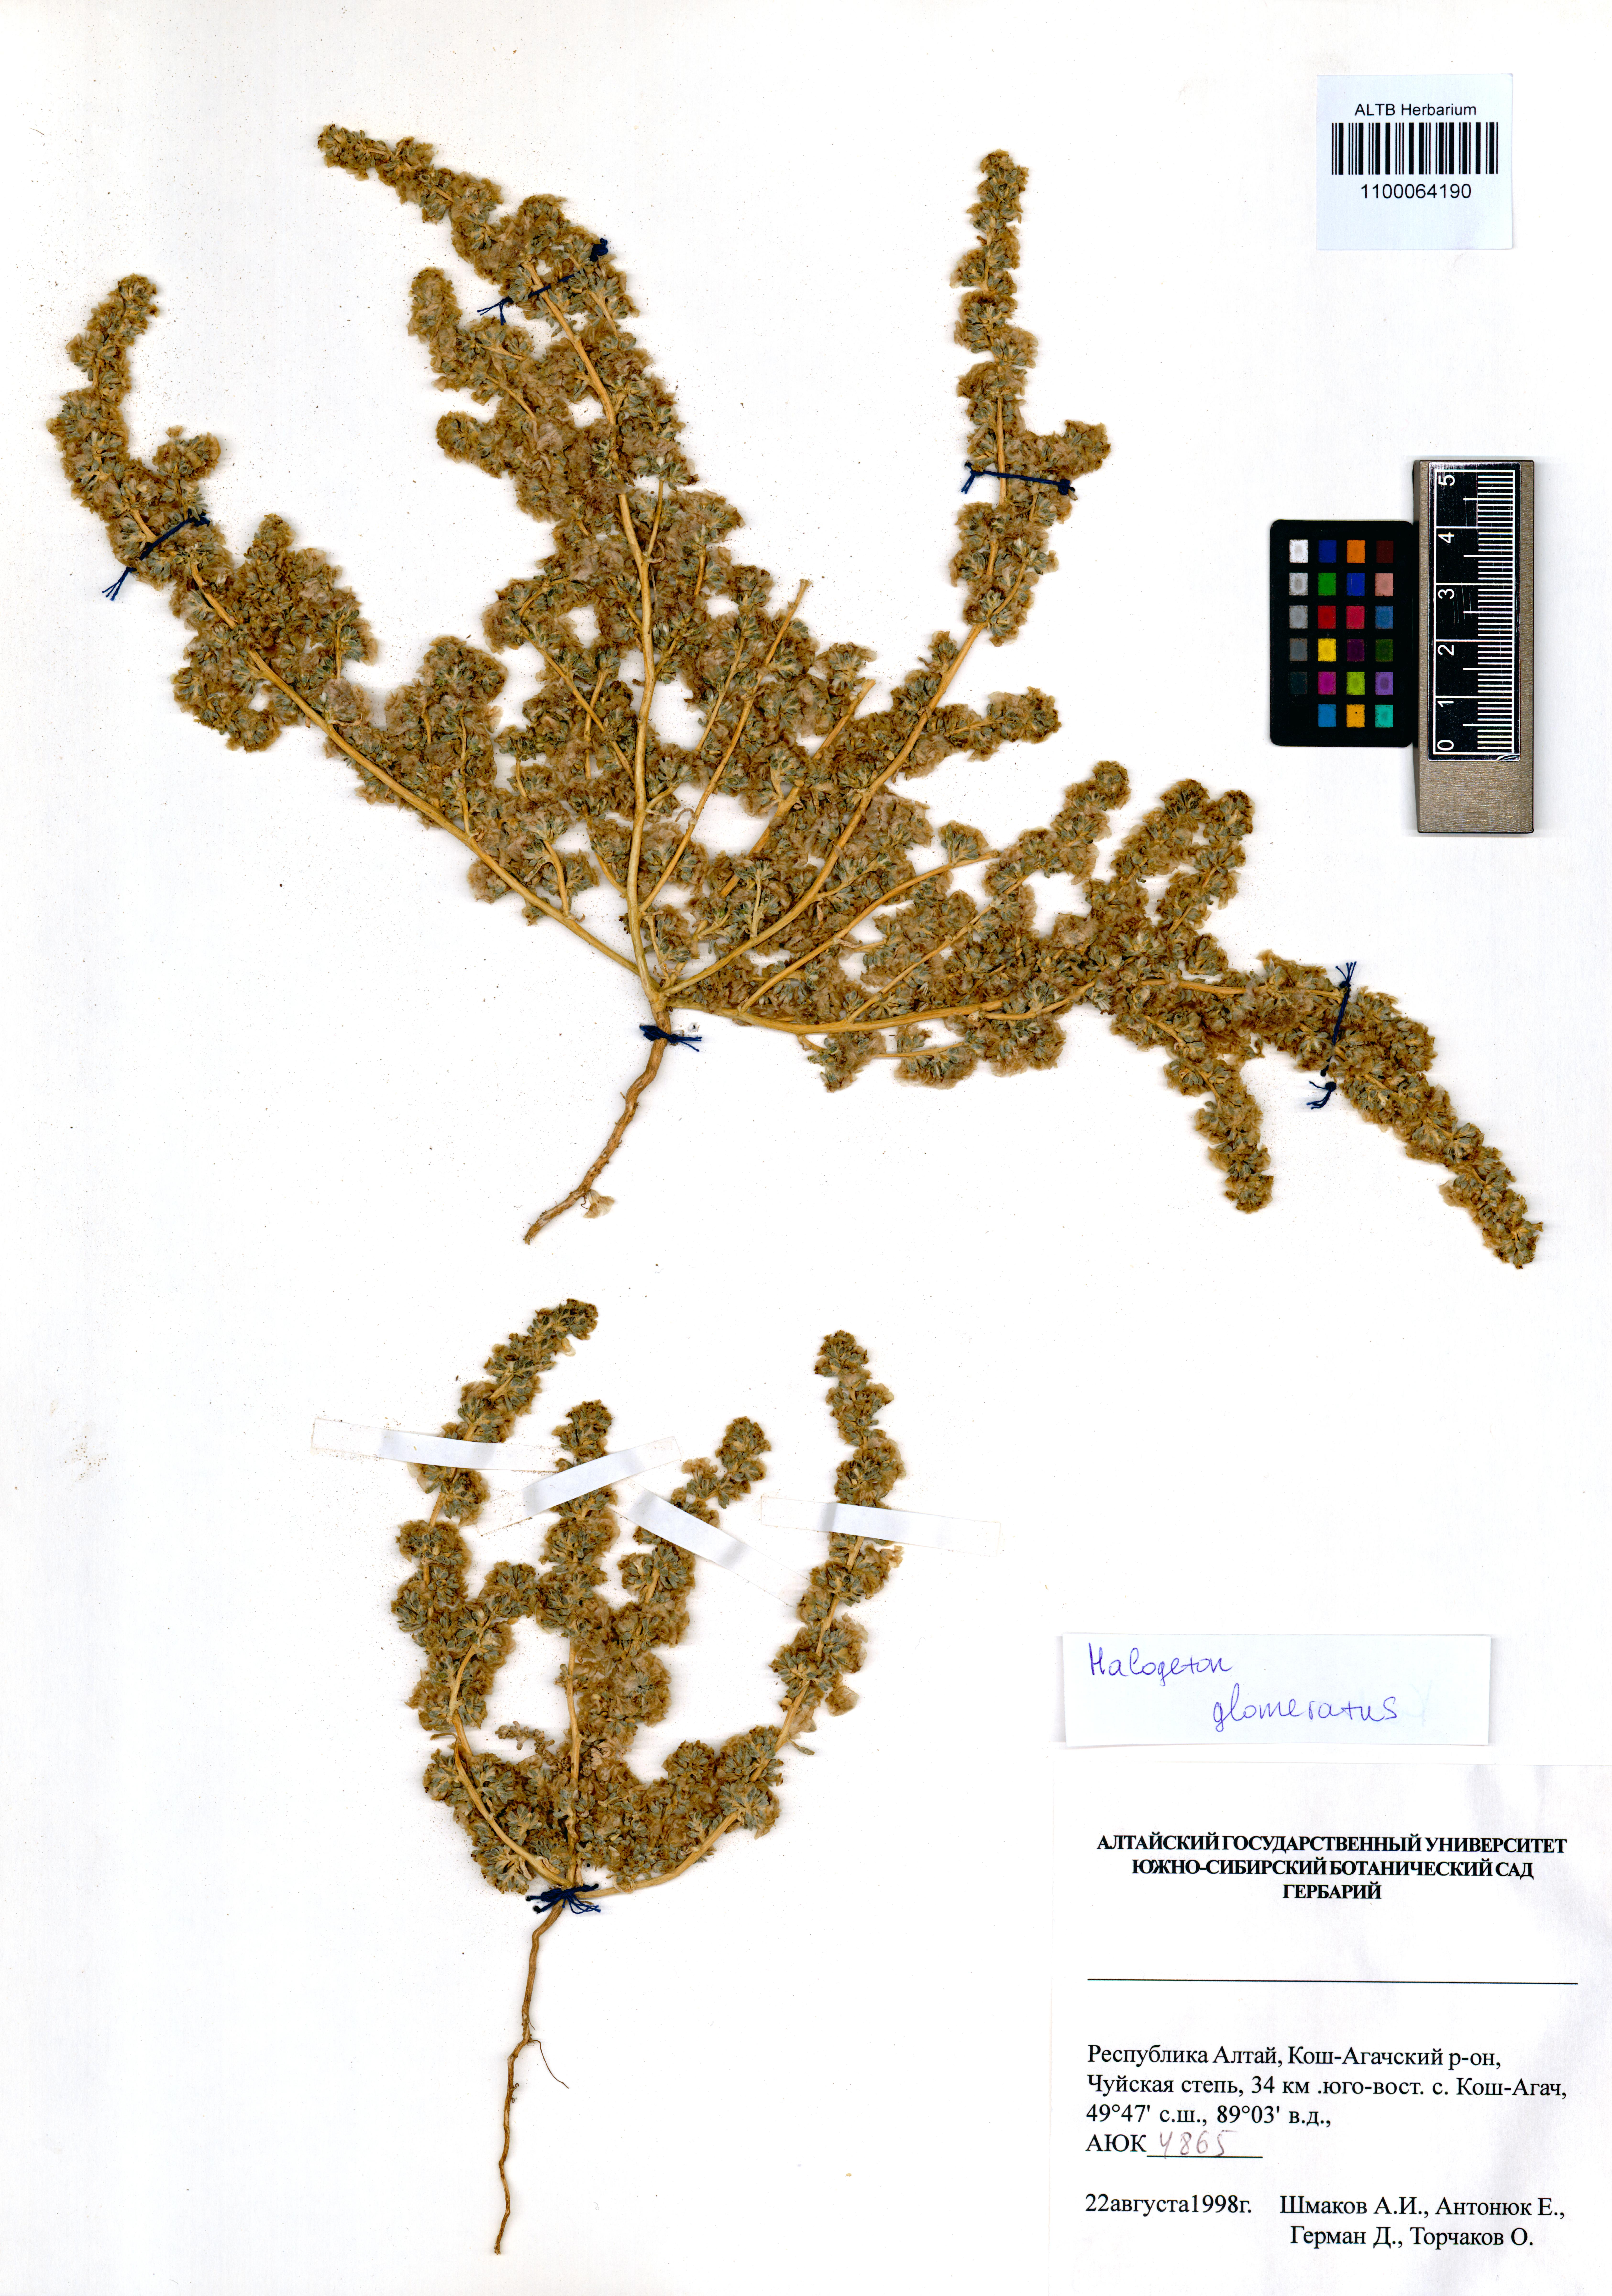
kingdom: Plantae
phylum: Tracheophyta
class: Magnoliopsida
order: Caryophyllales
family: Amaranthaceae
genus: Halogeton
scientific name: Halogeton glomeratus
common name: Saltlover
